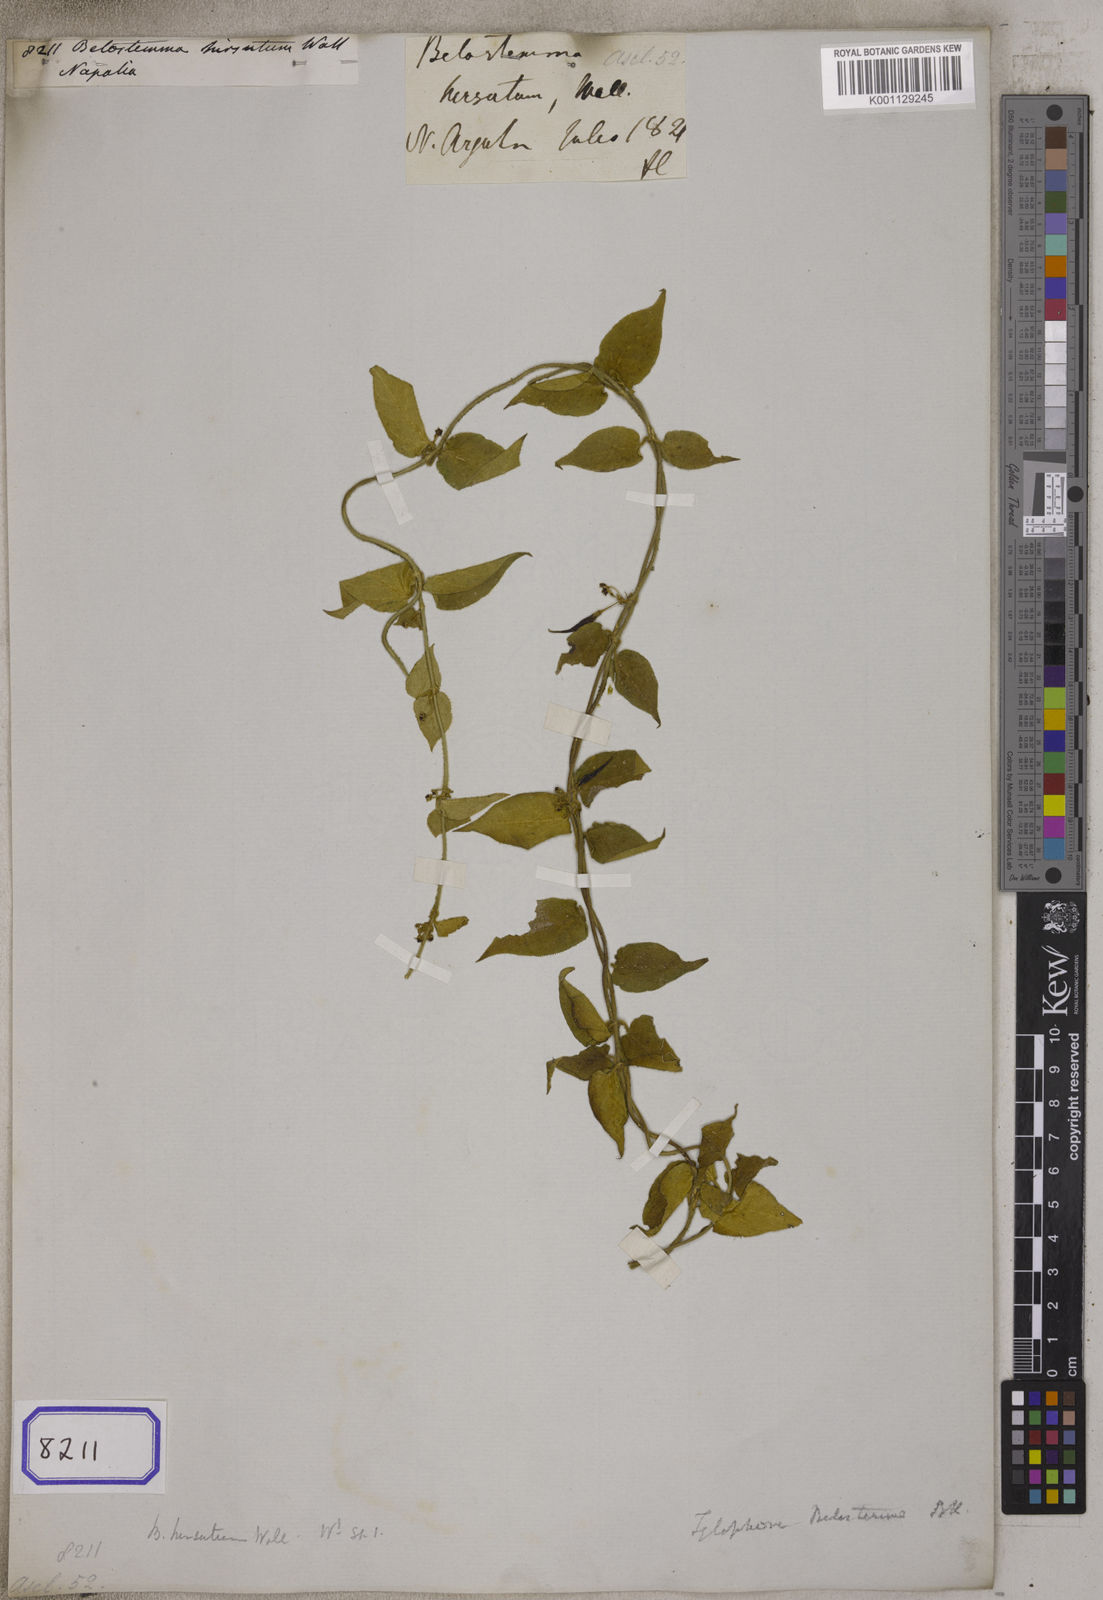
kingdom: Plantae
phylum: Tracheophyta
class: Magnoliopsida
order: Gentianales
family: Apocynaceae
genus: Vincetoxicum
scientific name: Vincetoxicum belostemma
